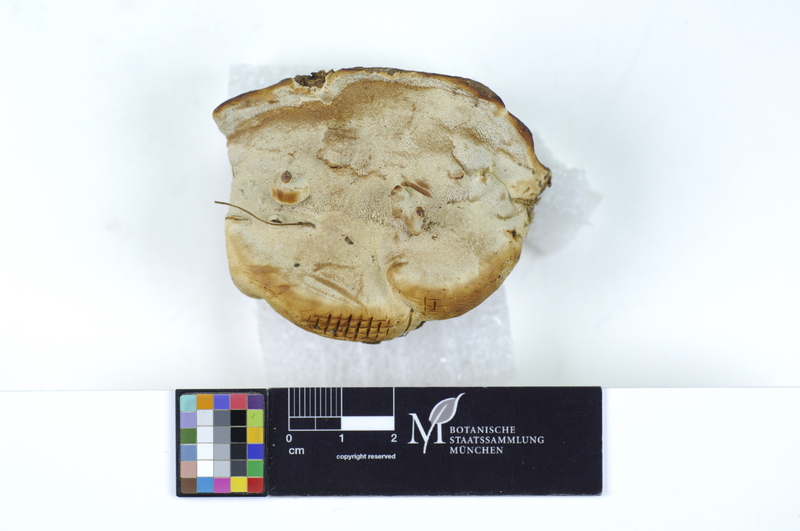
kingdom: Fungi
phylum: Basidiomycota
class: Agaricomycetes
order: Polyporales
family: Polyporaceae
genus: Ganoderma
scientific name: Ganoderma applanatum
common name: Artist's bracket
